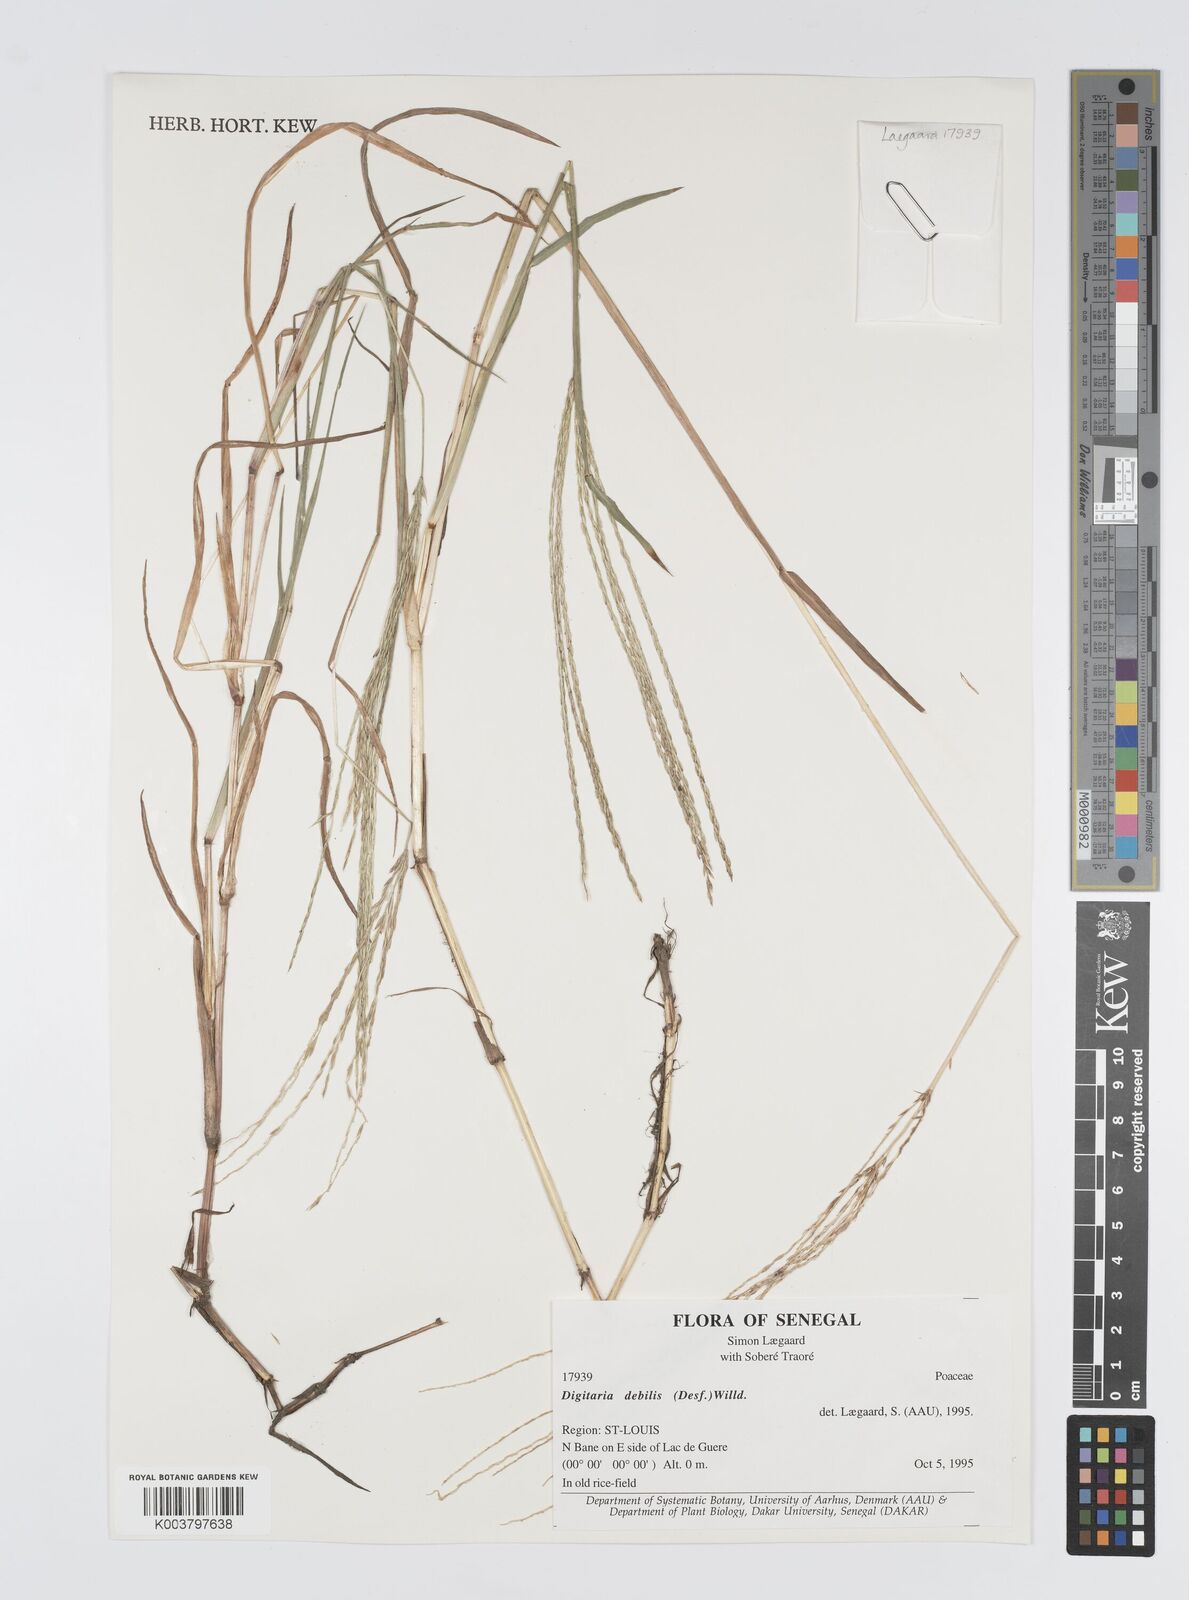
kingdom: Plantae
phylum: Tracheophyta
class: Liliopsida
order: Poales
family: Poaceae
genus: Digitaria
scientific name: Digitaria debilis
